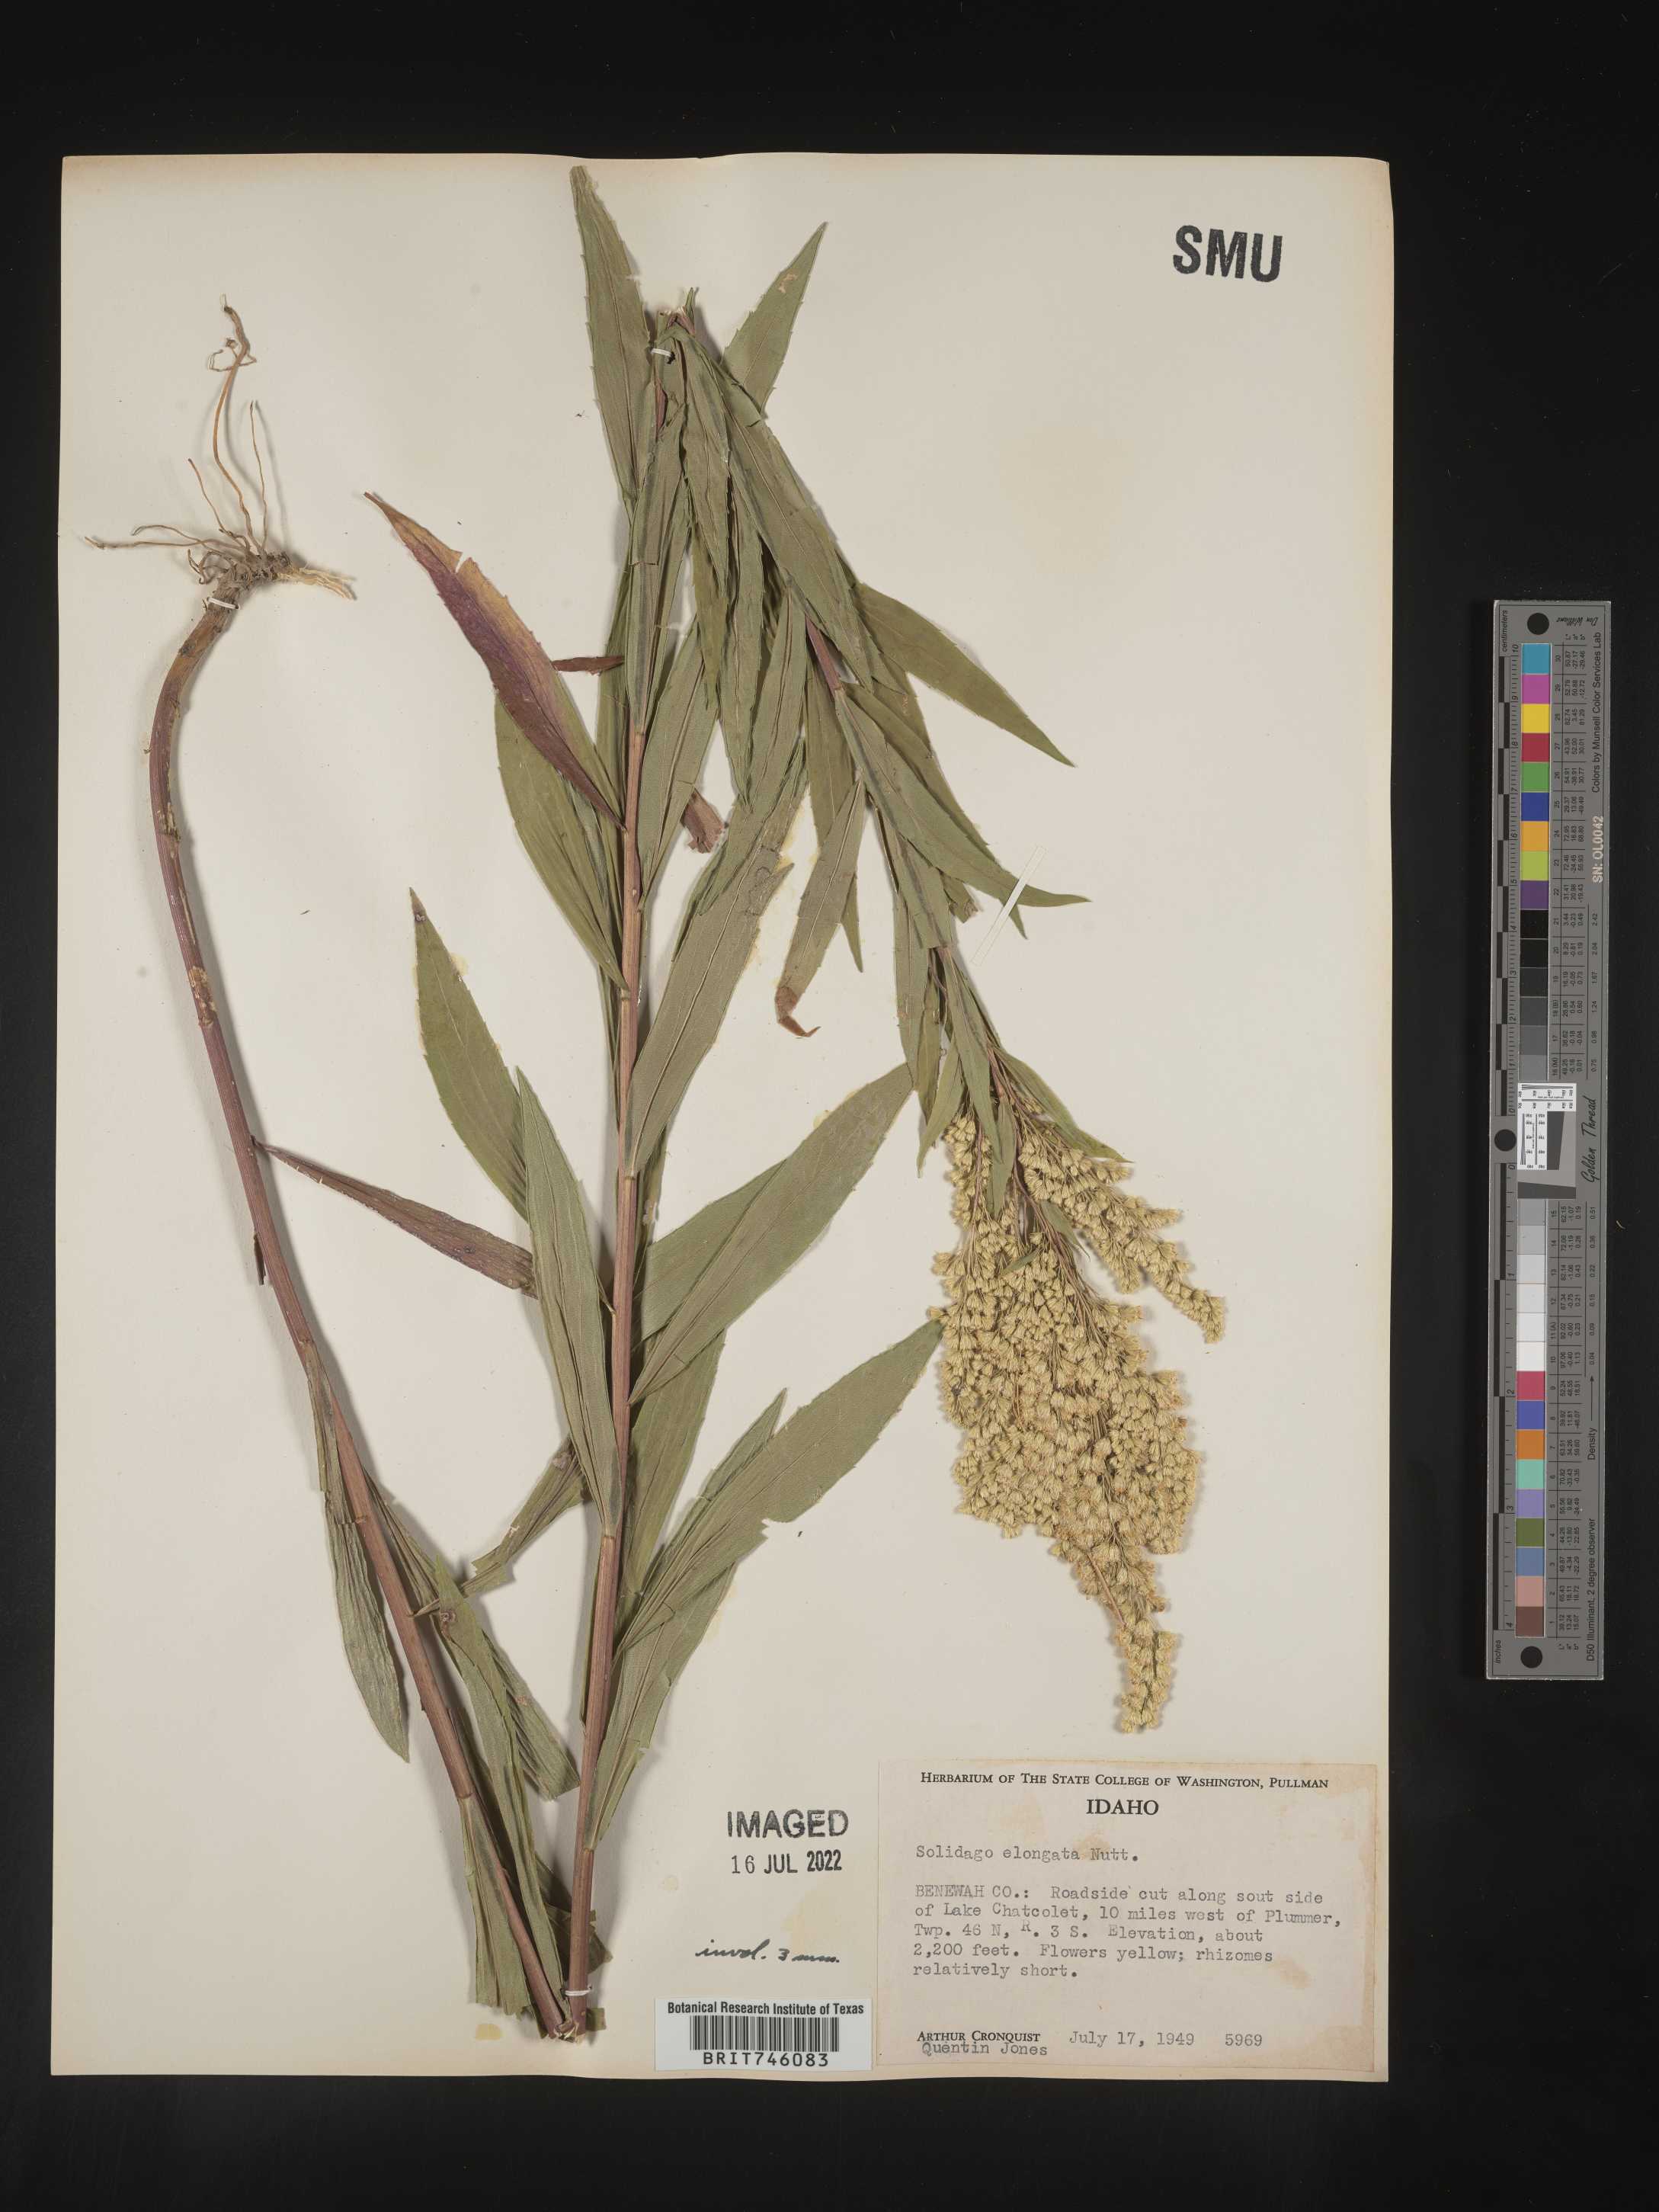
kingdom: Plantae
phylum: Tracheophyta
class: Magnoliopsida
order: Asterales
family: Asteraceae
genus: Solidago
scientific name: Solidago elongata
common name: Cascade canada goldenrod
